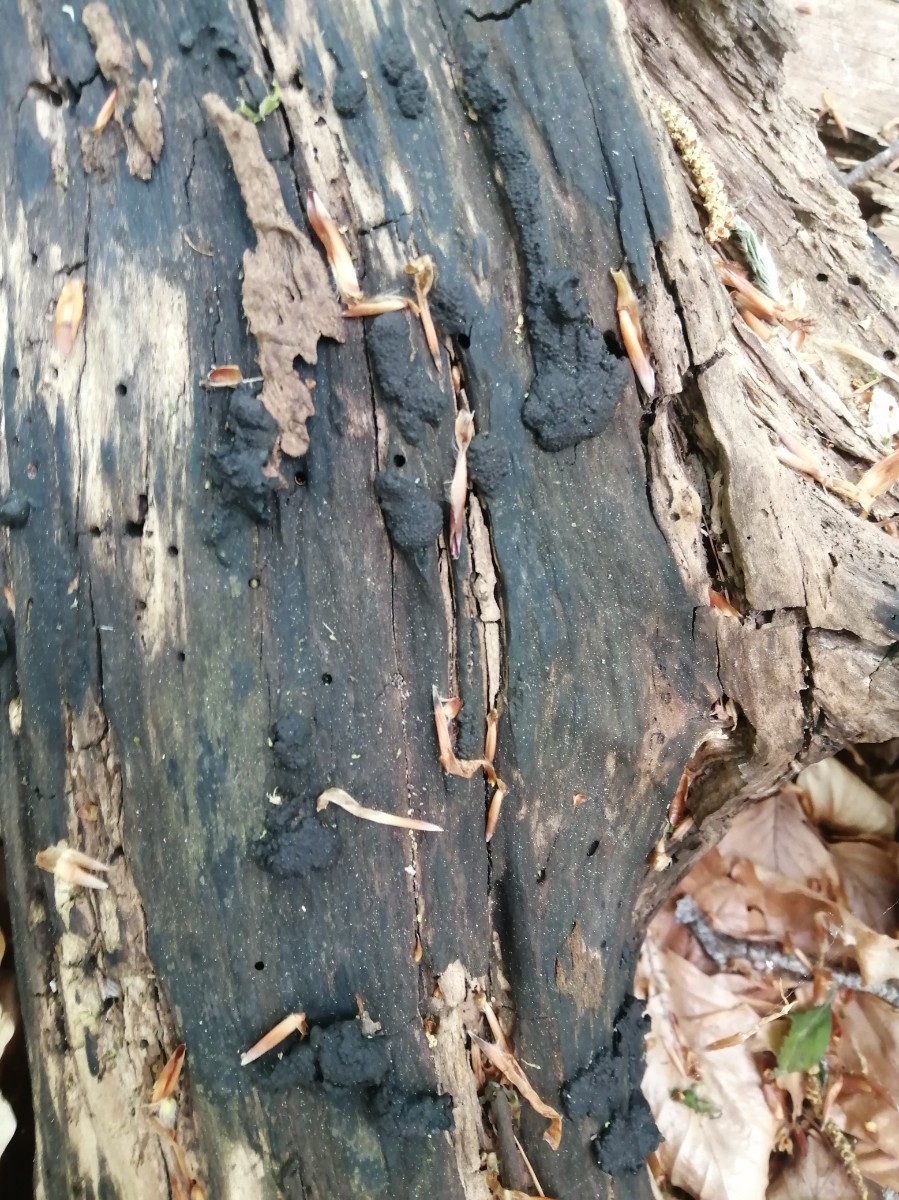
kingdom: Fungi
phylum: Ascomycota
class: Sordariomycetes
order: Xylariales
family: Hypoxylaceae
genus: Jackrogersella
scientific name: Jackrogersella multiformis
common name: foranderlig kulbær
